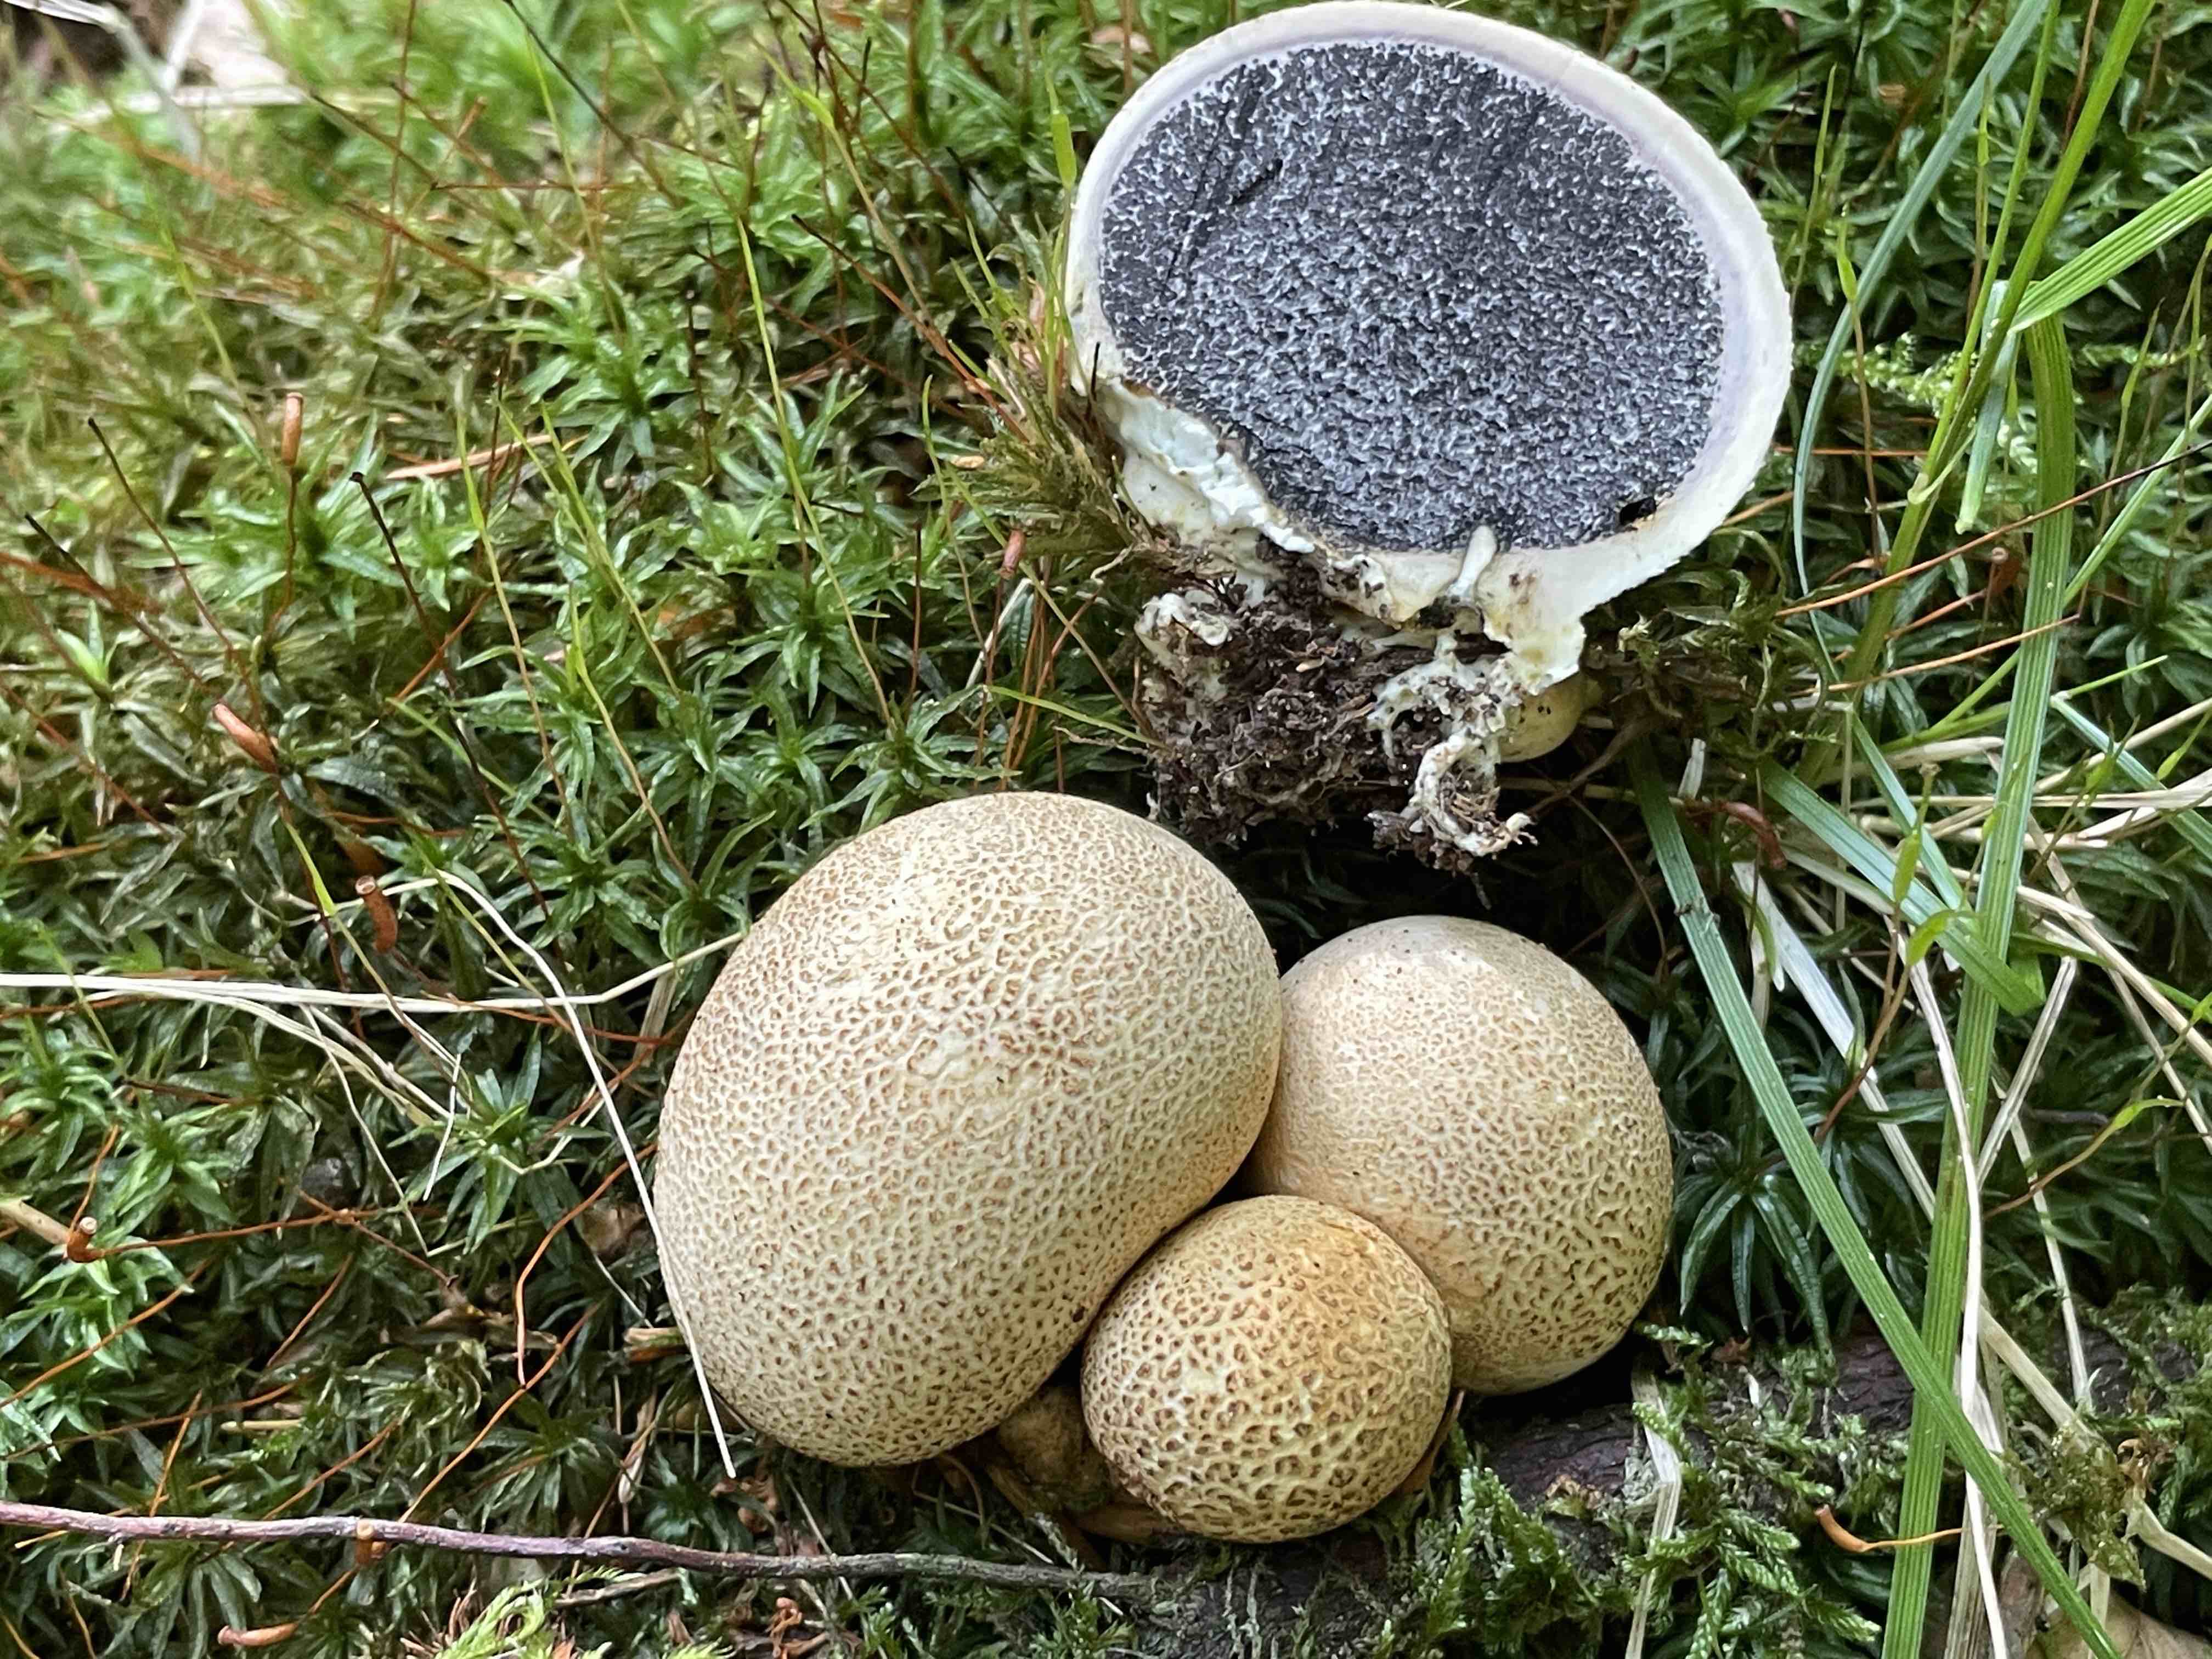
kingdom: Fungi
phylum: Basidiomycota
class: Agaricomycetes
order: Boletales
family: Sclerodermataceae
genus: Scleroderma
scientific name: Scleroderma citrinum
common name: almindelig bruskbold
